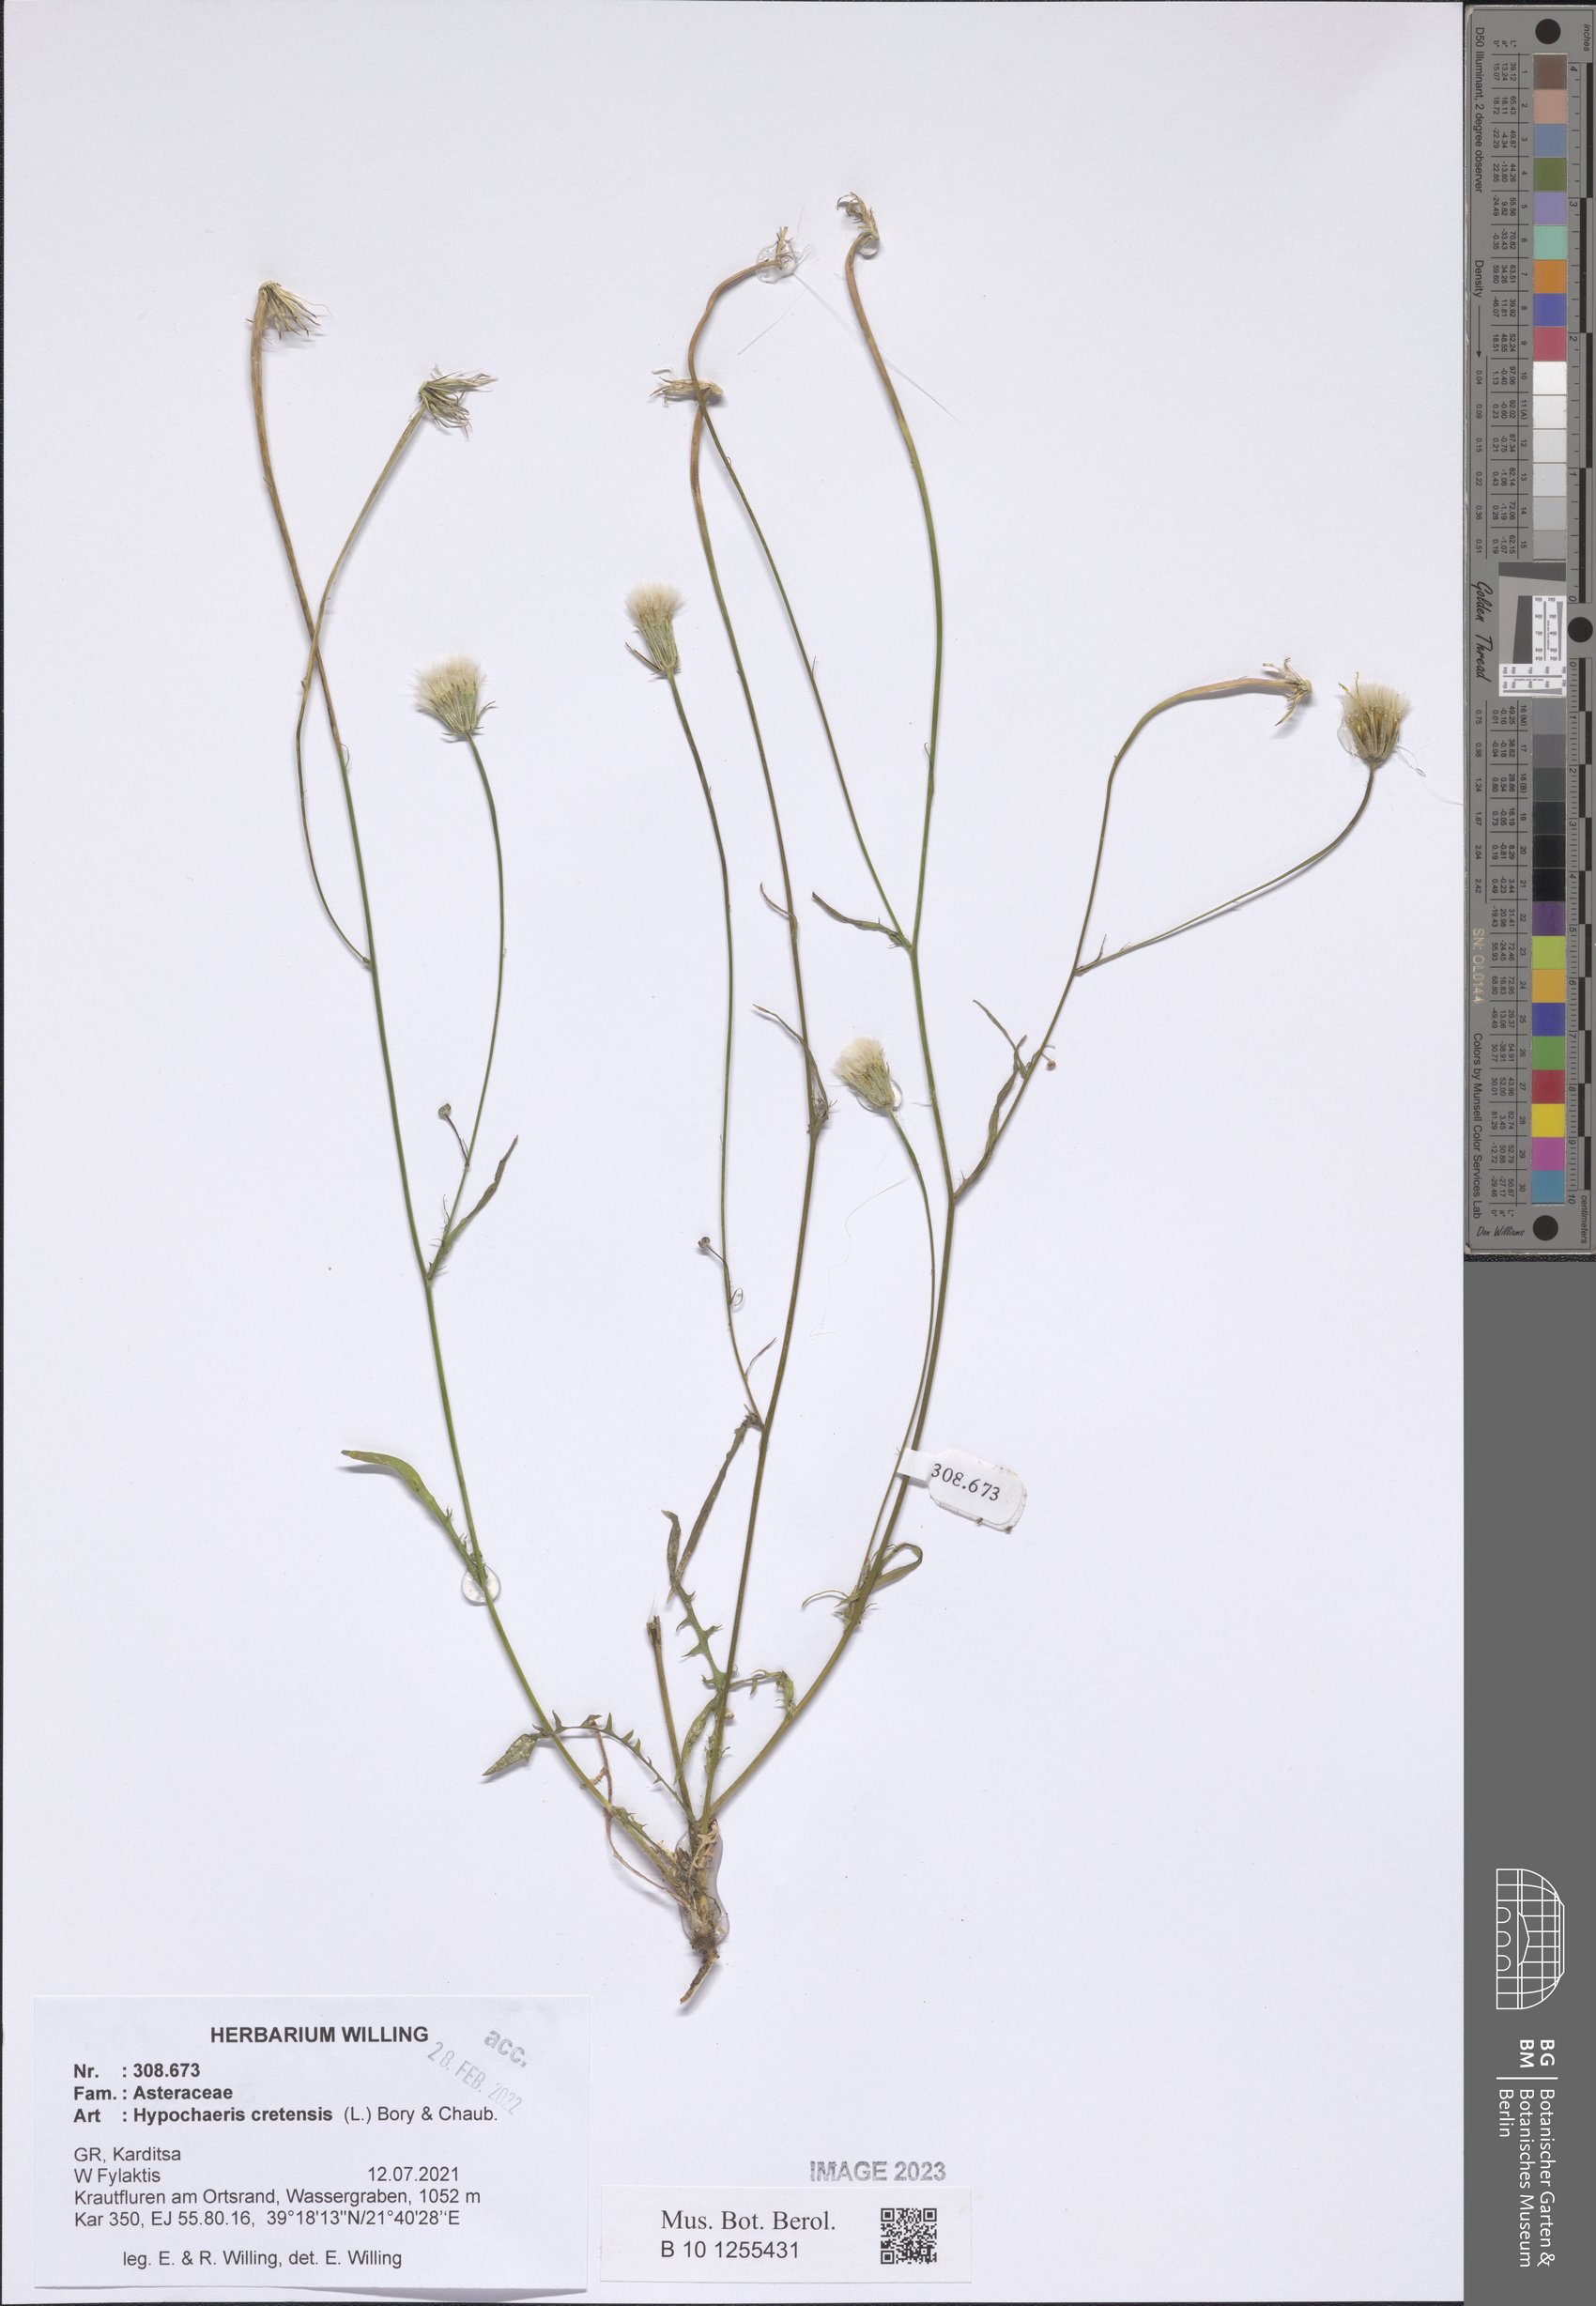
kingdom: Plantae
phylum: Tracheophyta
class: Magnoliopsida
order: Asterales
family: Asteraceae
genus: Hypochaeris
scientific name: Hypochaeris cretensis
